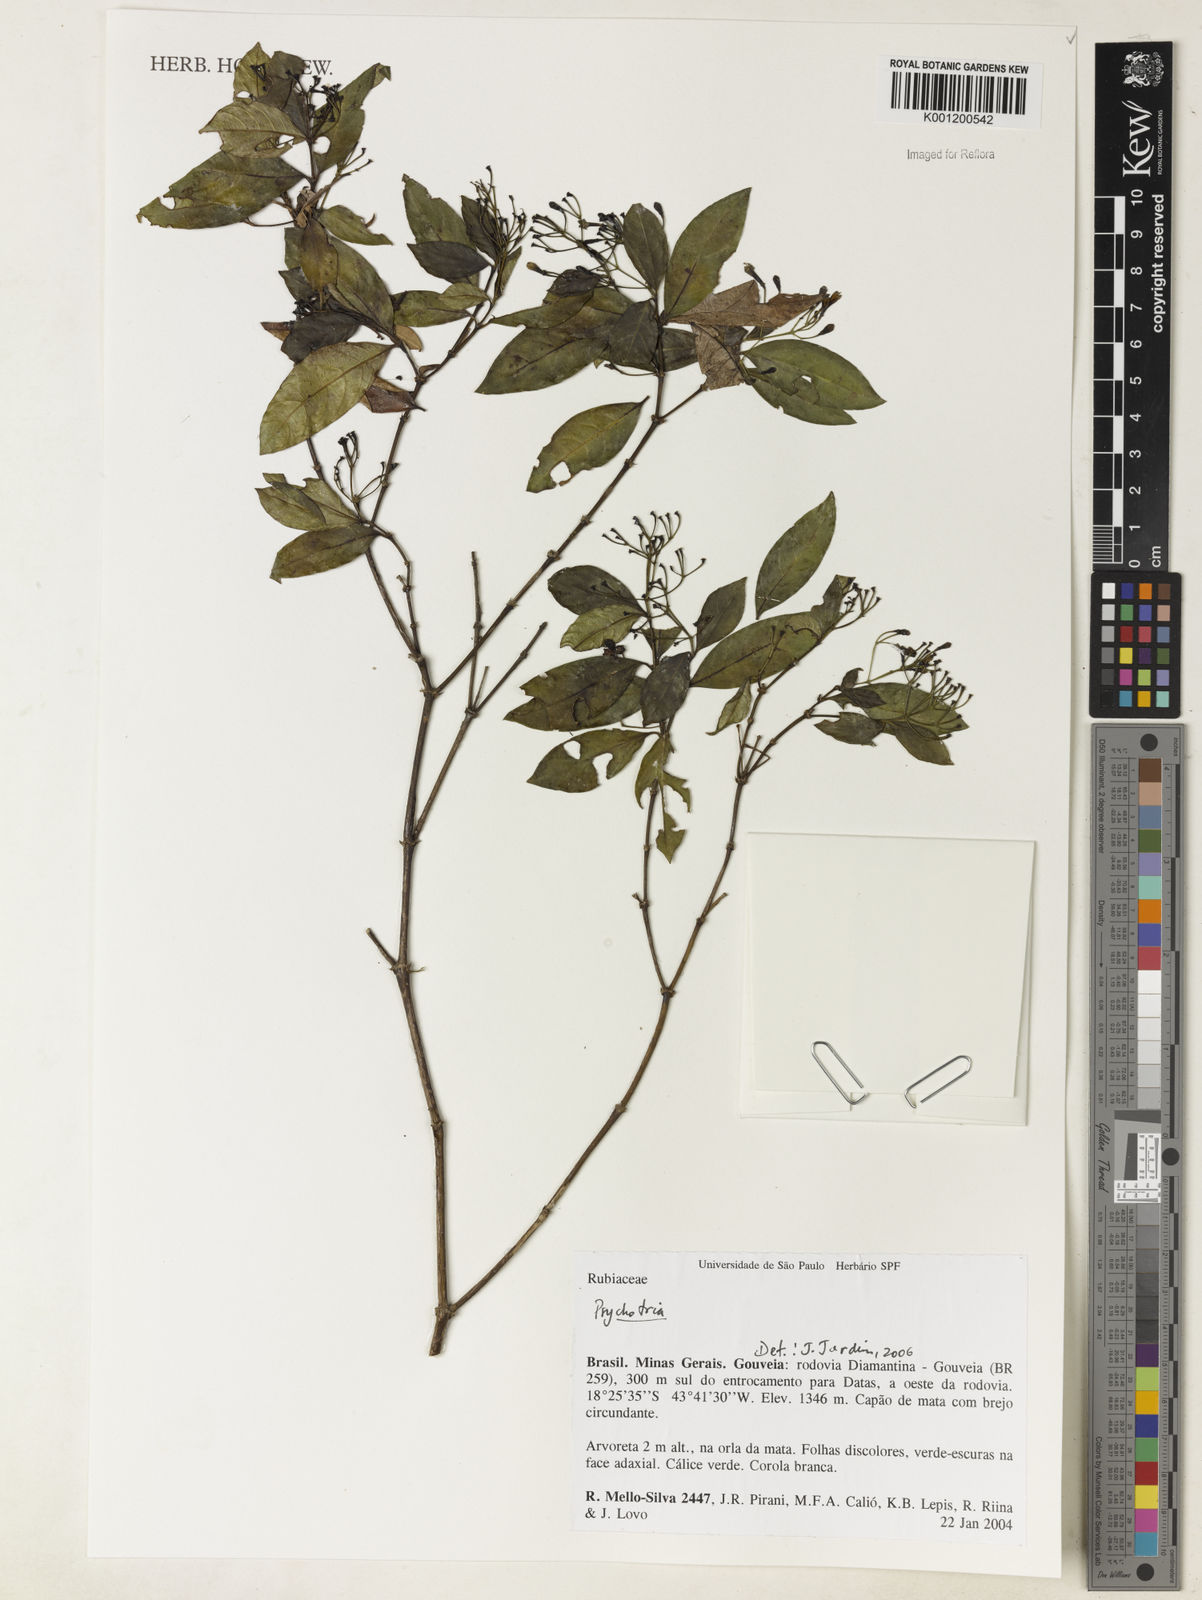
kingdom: Plantae
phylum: Tracheophyta
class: Magnoliopsida
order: Gentianales
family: Rubiaceae
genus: Psychotria
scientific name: Psychotria
